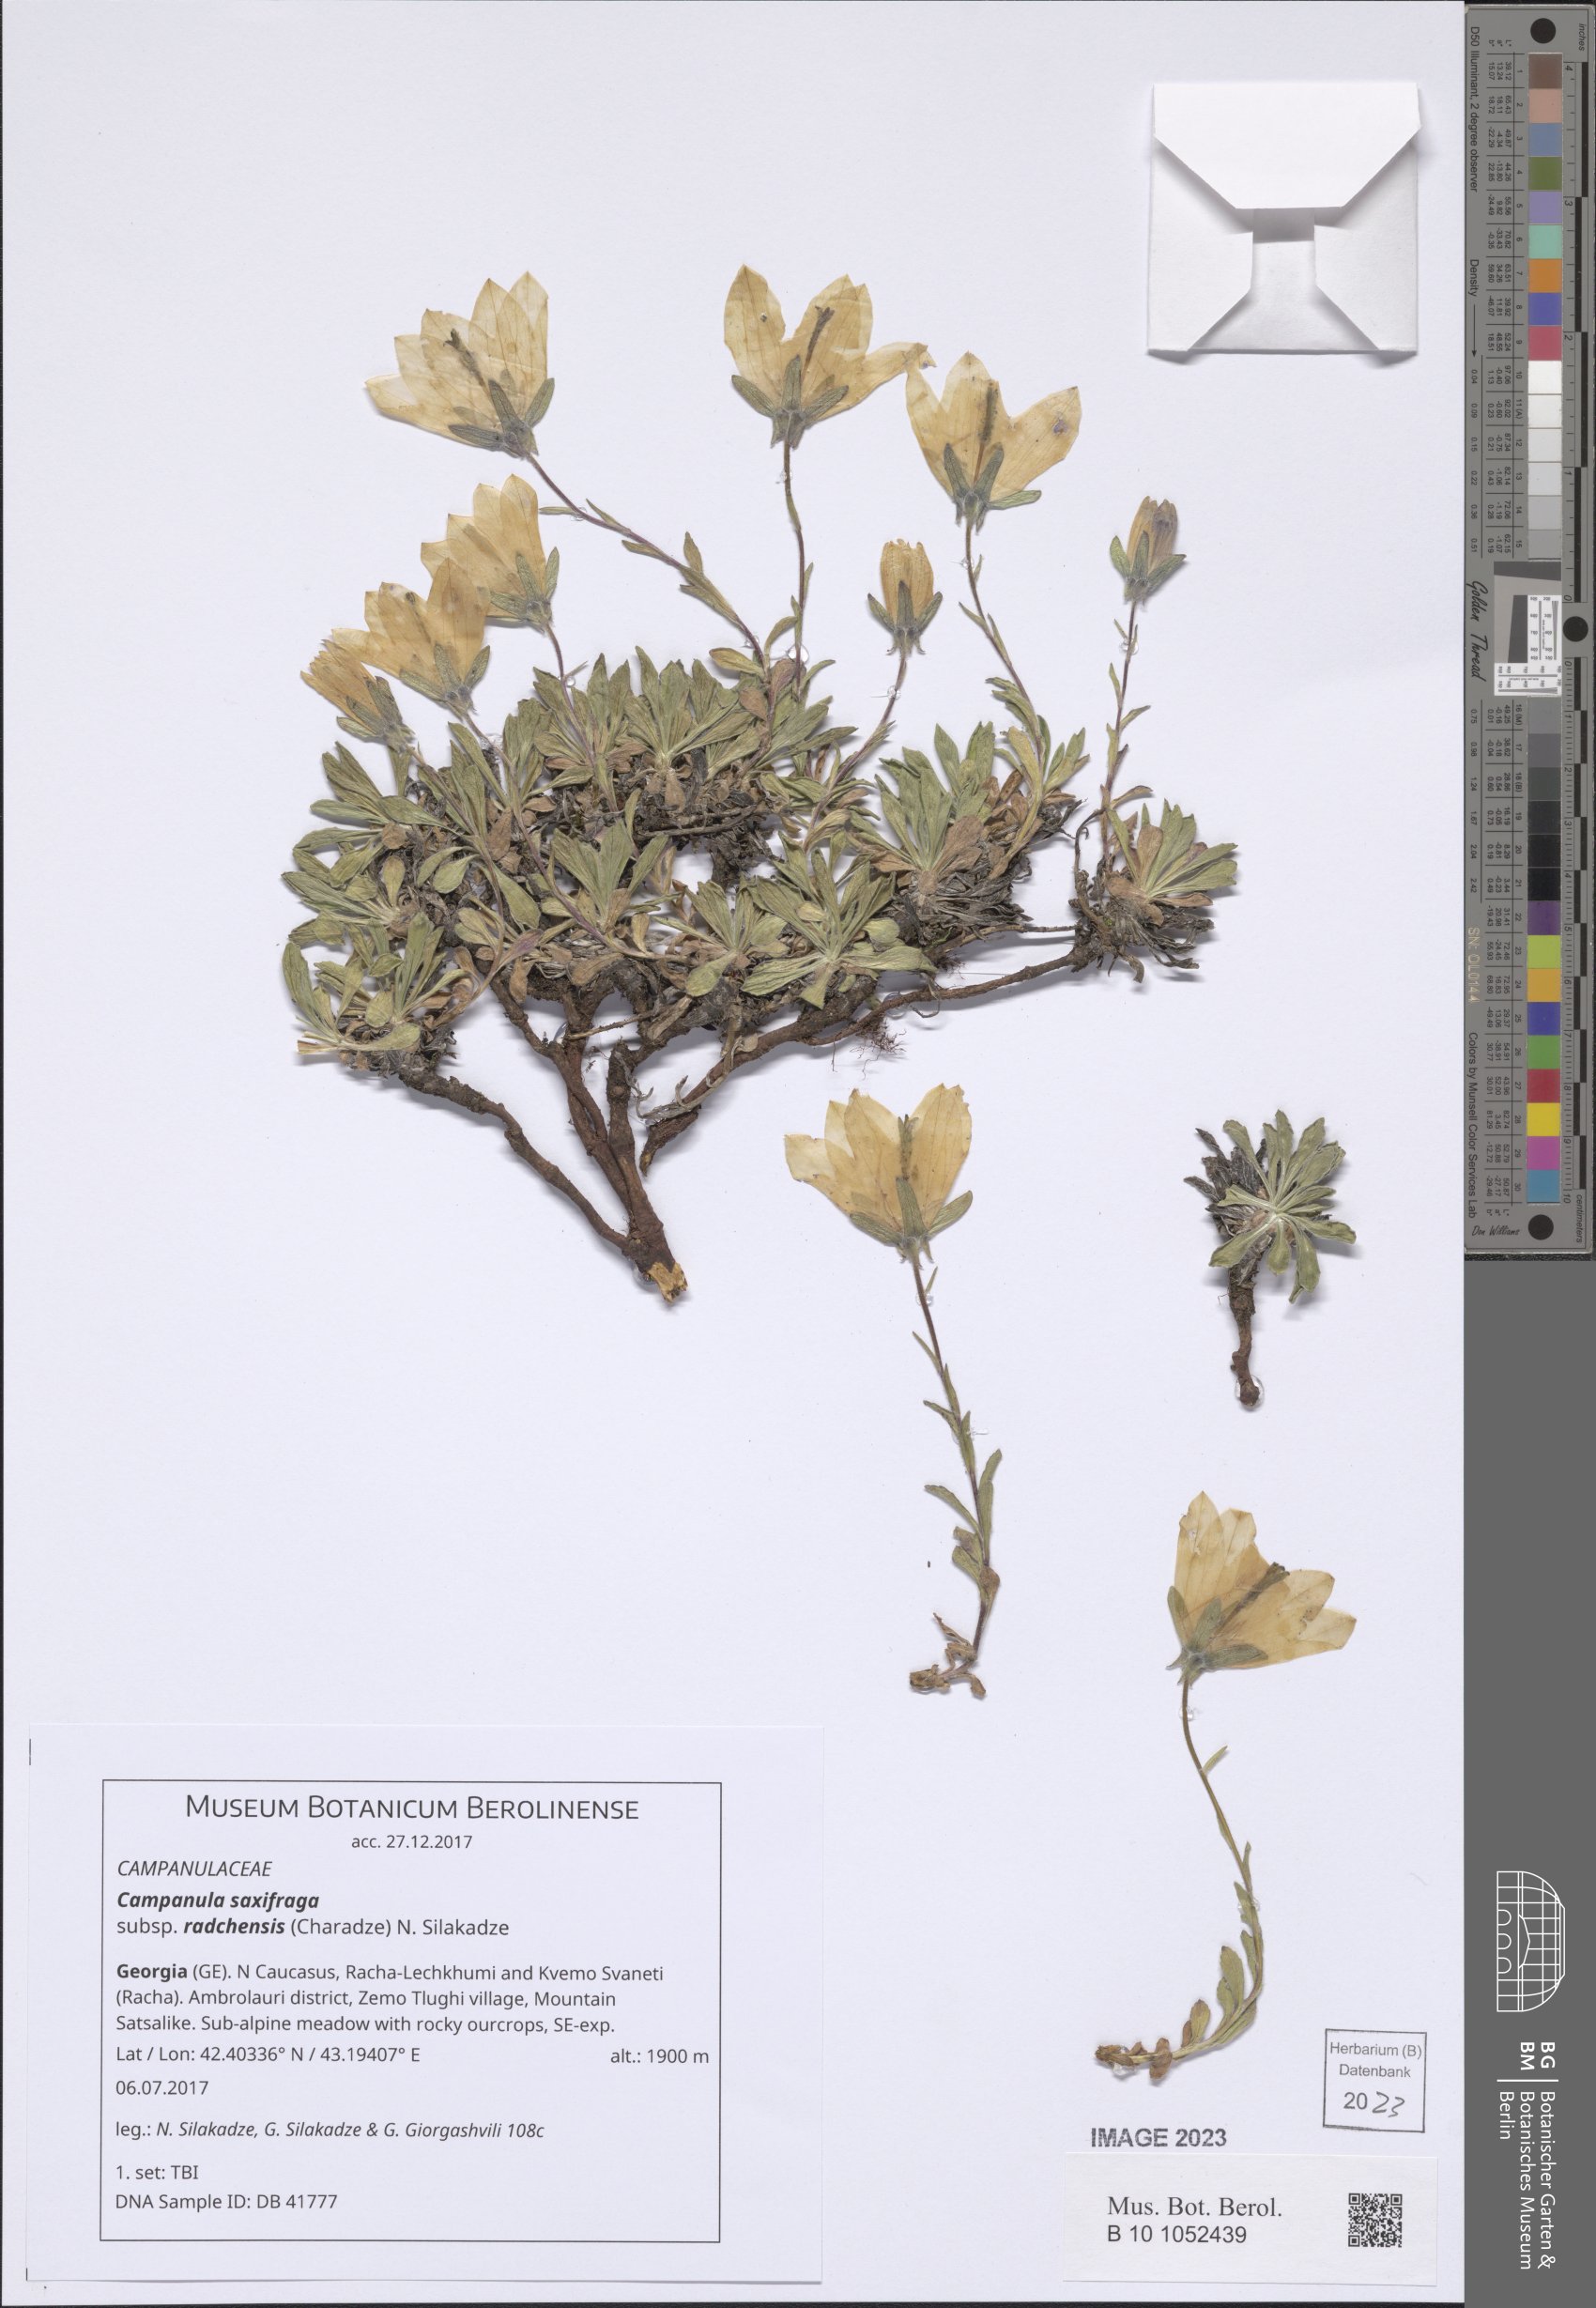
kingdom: Plantae
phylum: Tracheophyta
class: Magnoliopsida
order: Asterales
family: Campanulaceae
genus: Campanula
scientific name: Campanula saxifraga
